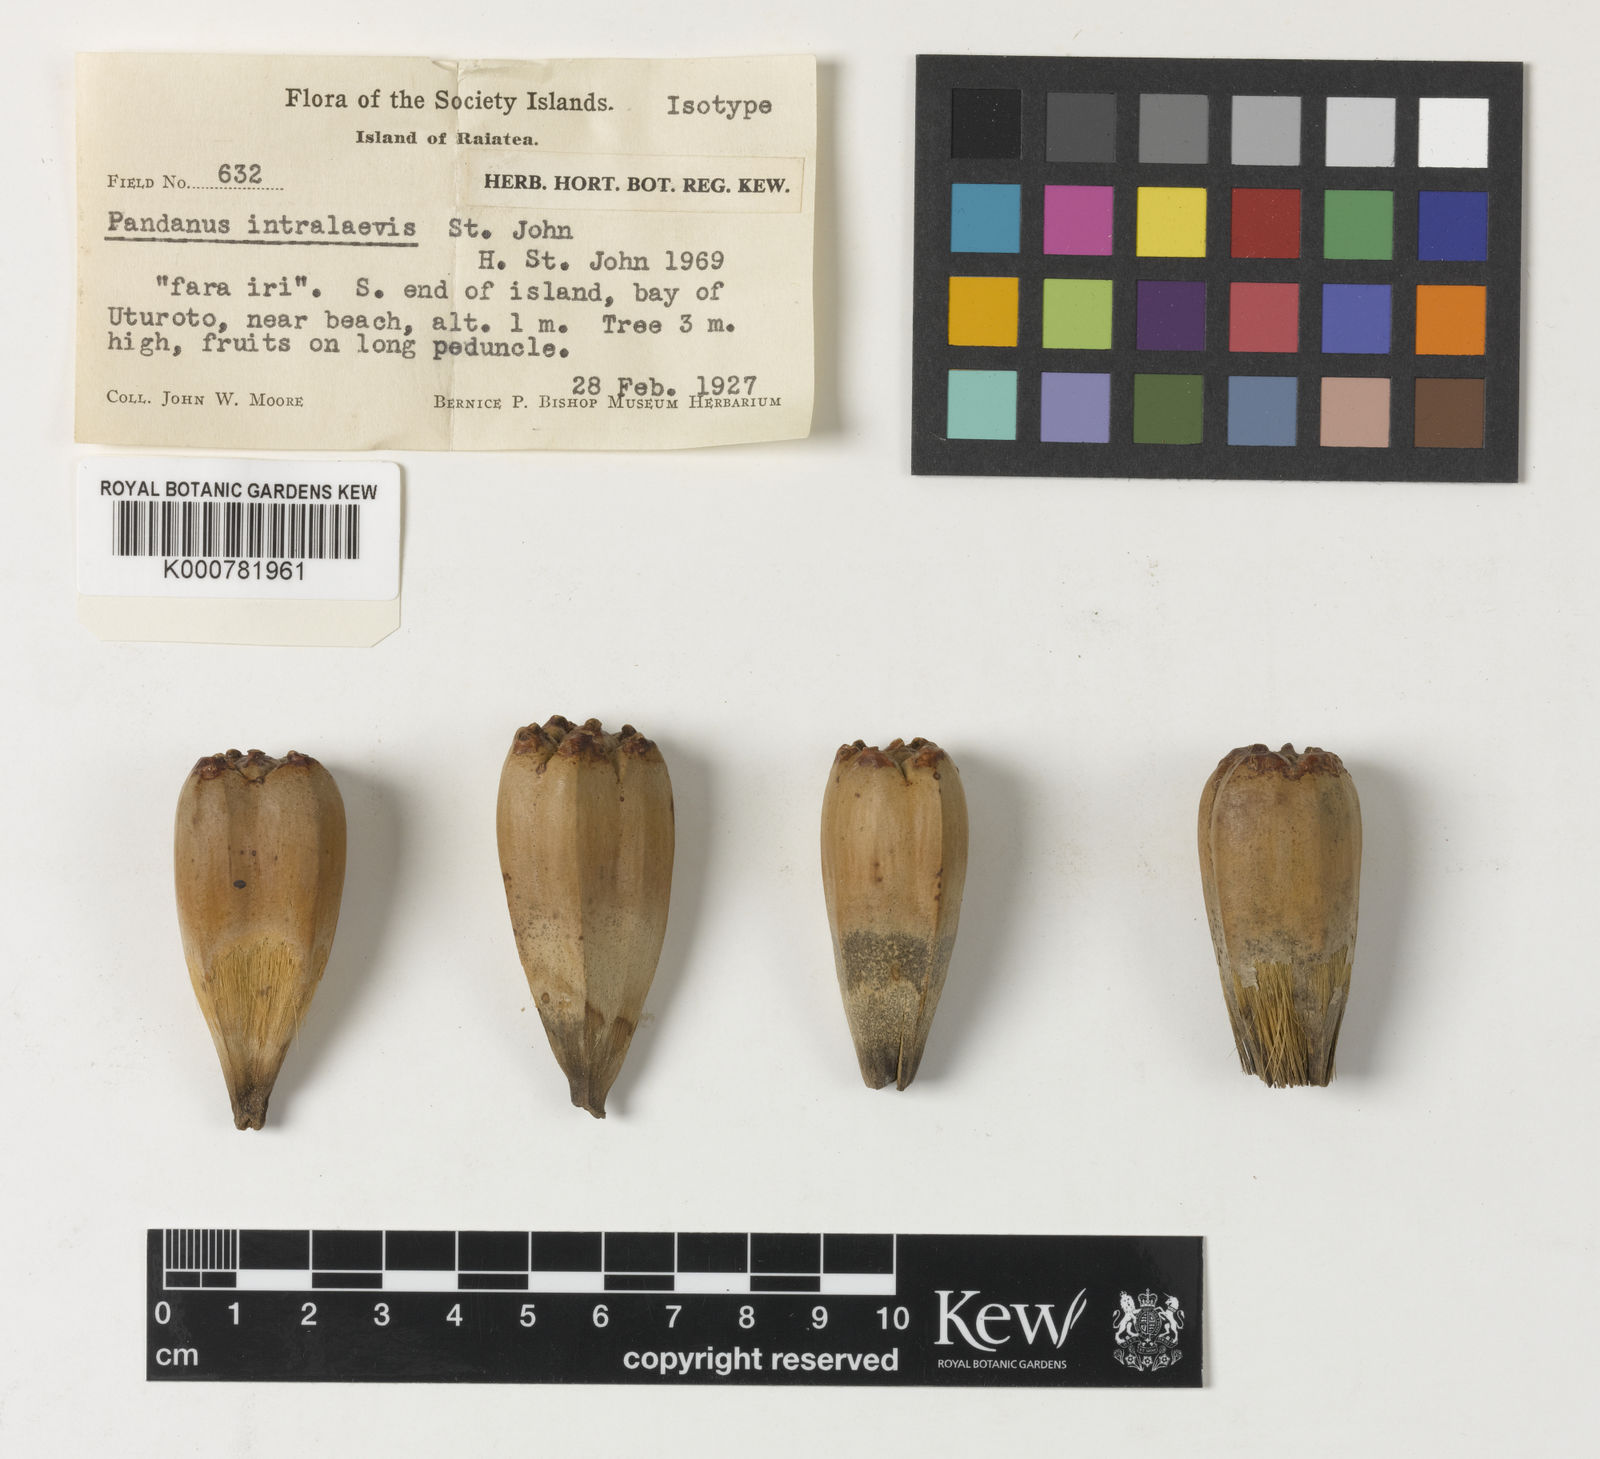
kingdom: Plantae
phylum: Tracheophyta
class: Liliopsida
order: Pandanales
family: Pandanaceae
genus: Pandanus
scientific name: Pandanus tectorius
